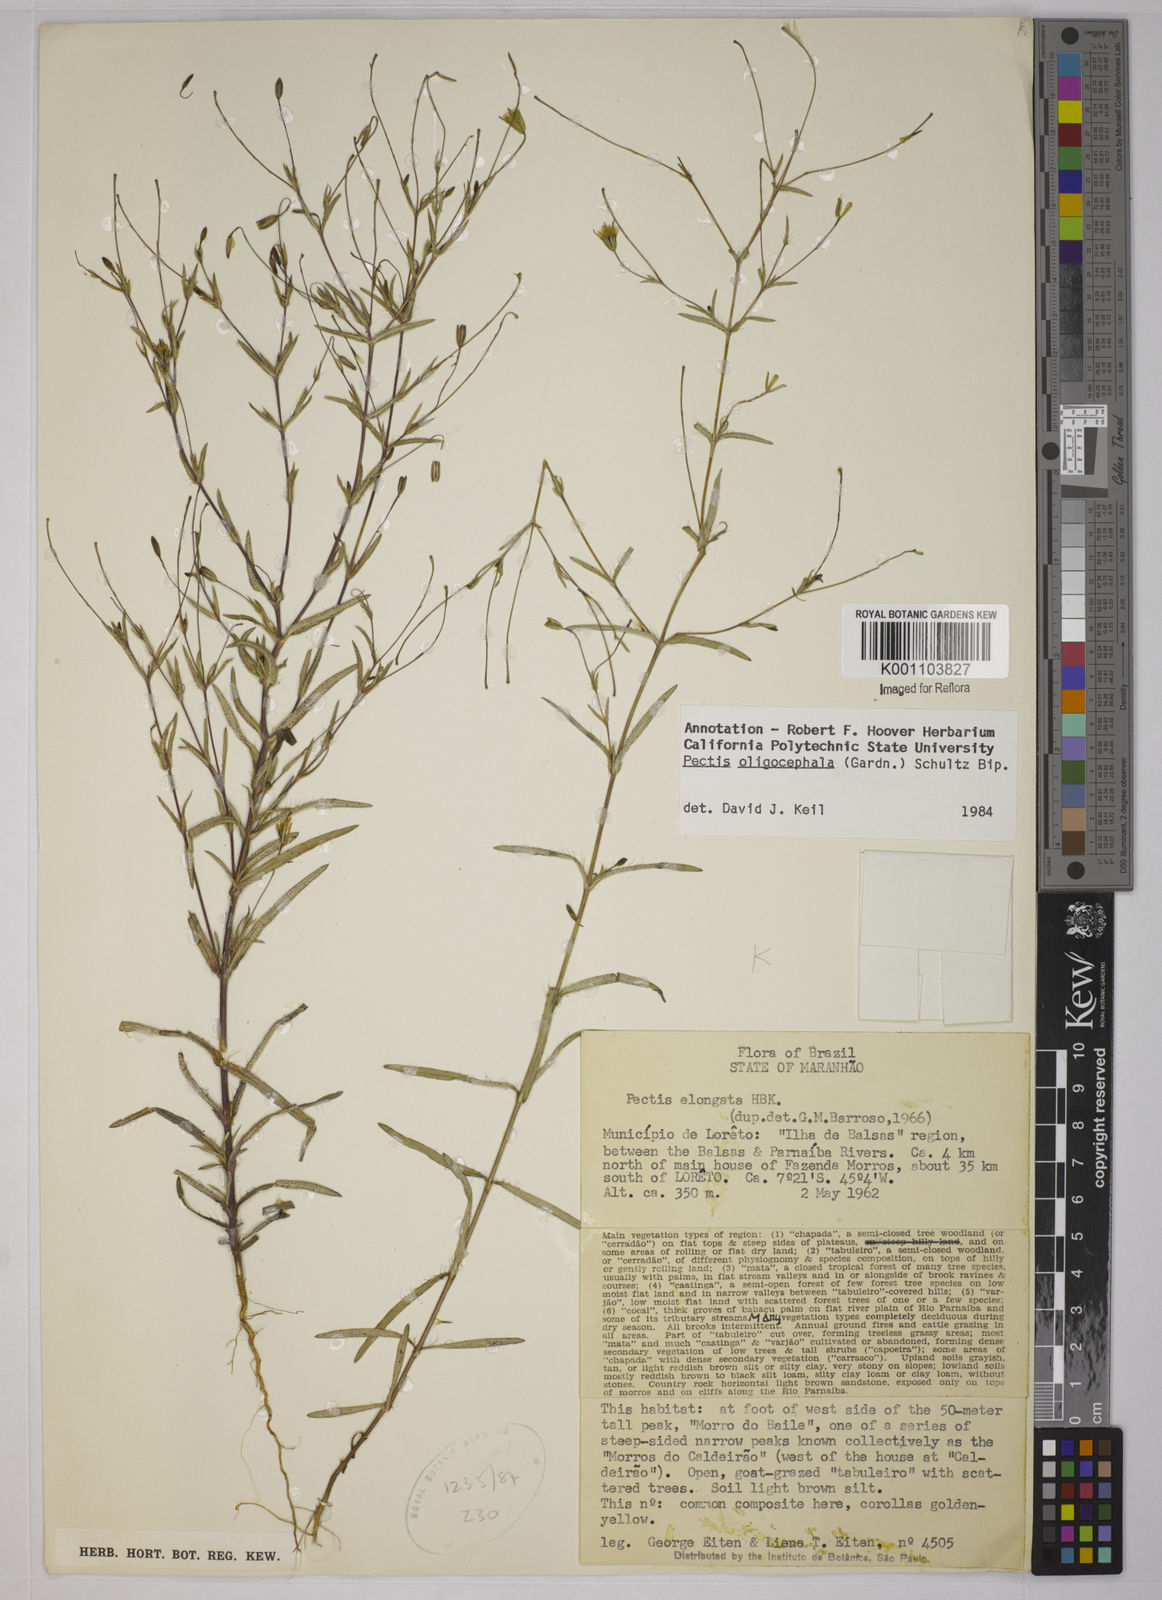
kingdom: Plantae
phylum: Tracheophyta
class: Magnoliopsida
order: Asterales
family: Asteraceae
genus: Pectis
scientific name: Pectis oligocephala
